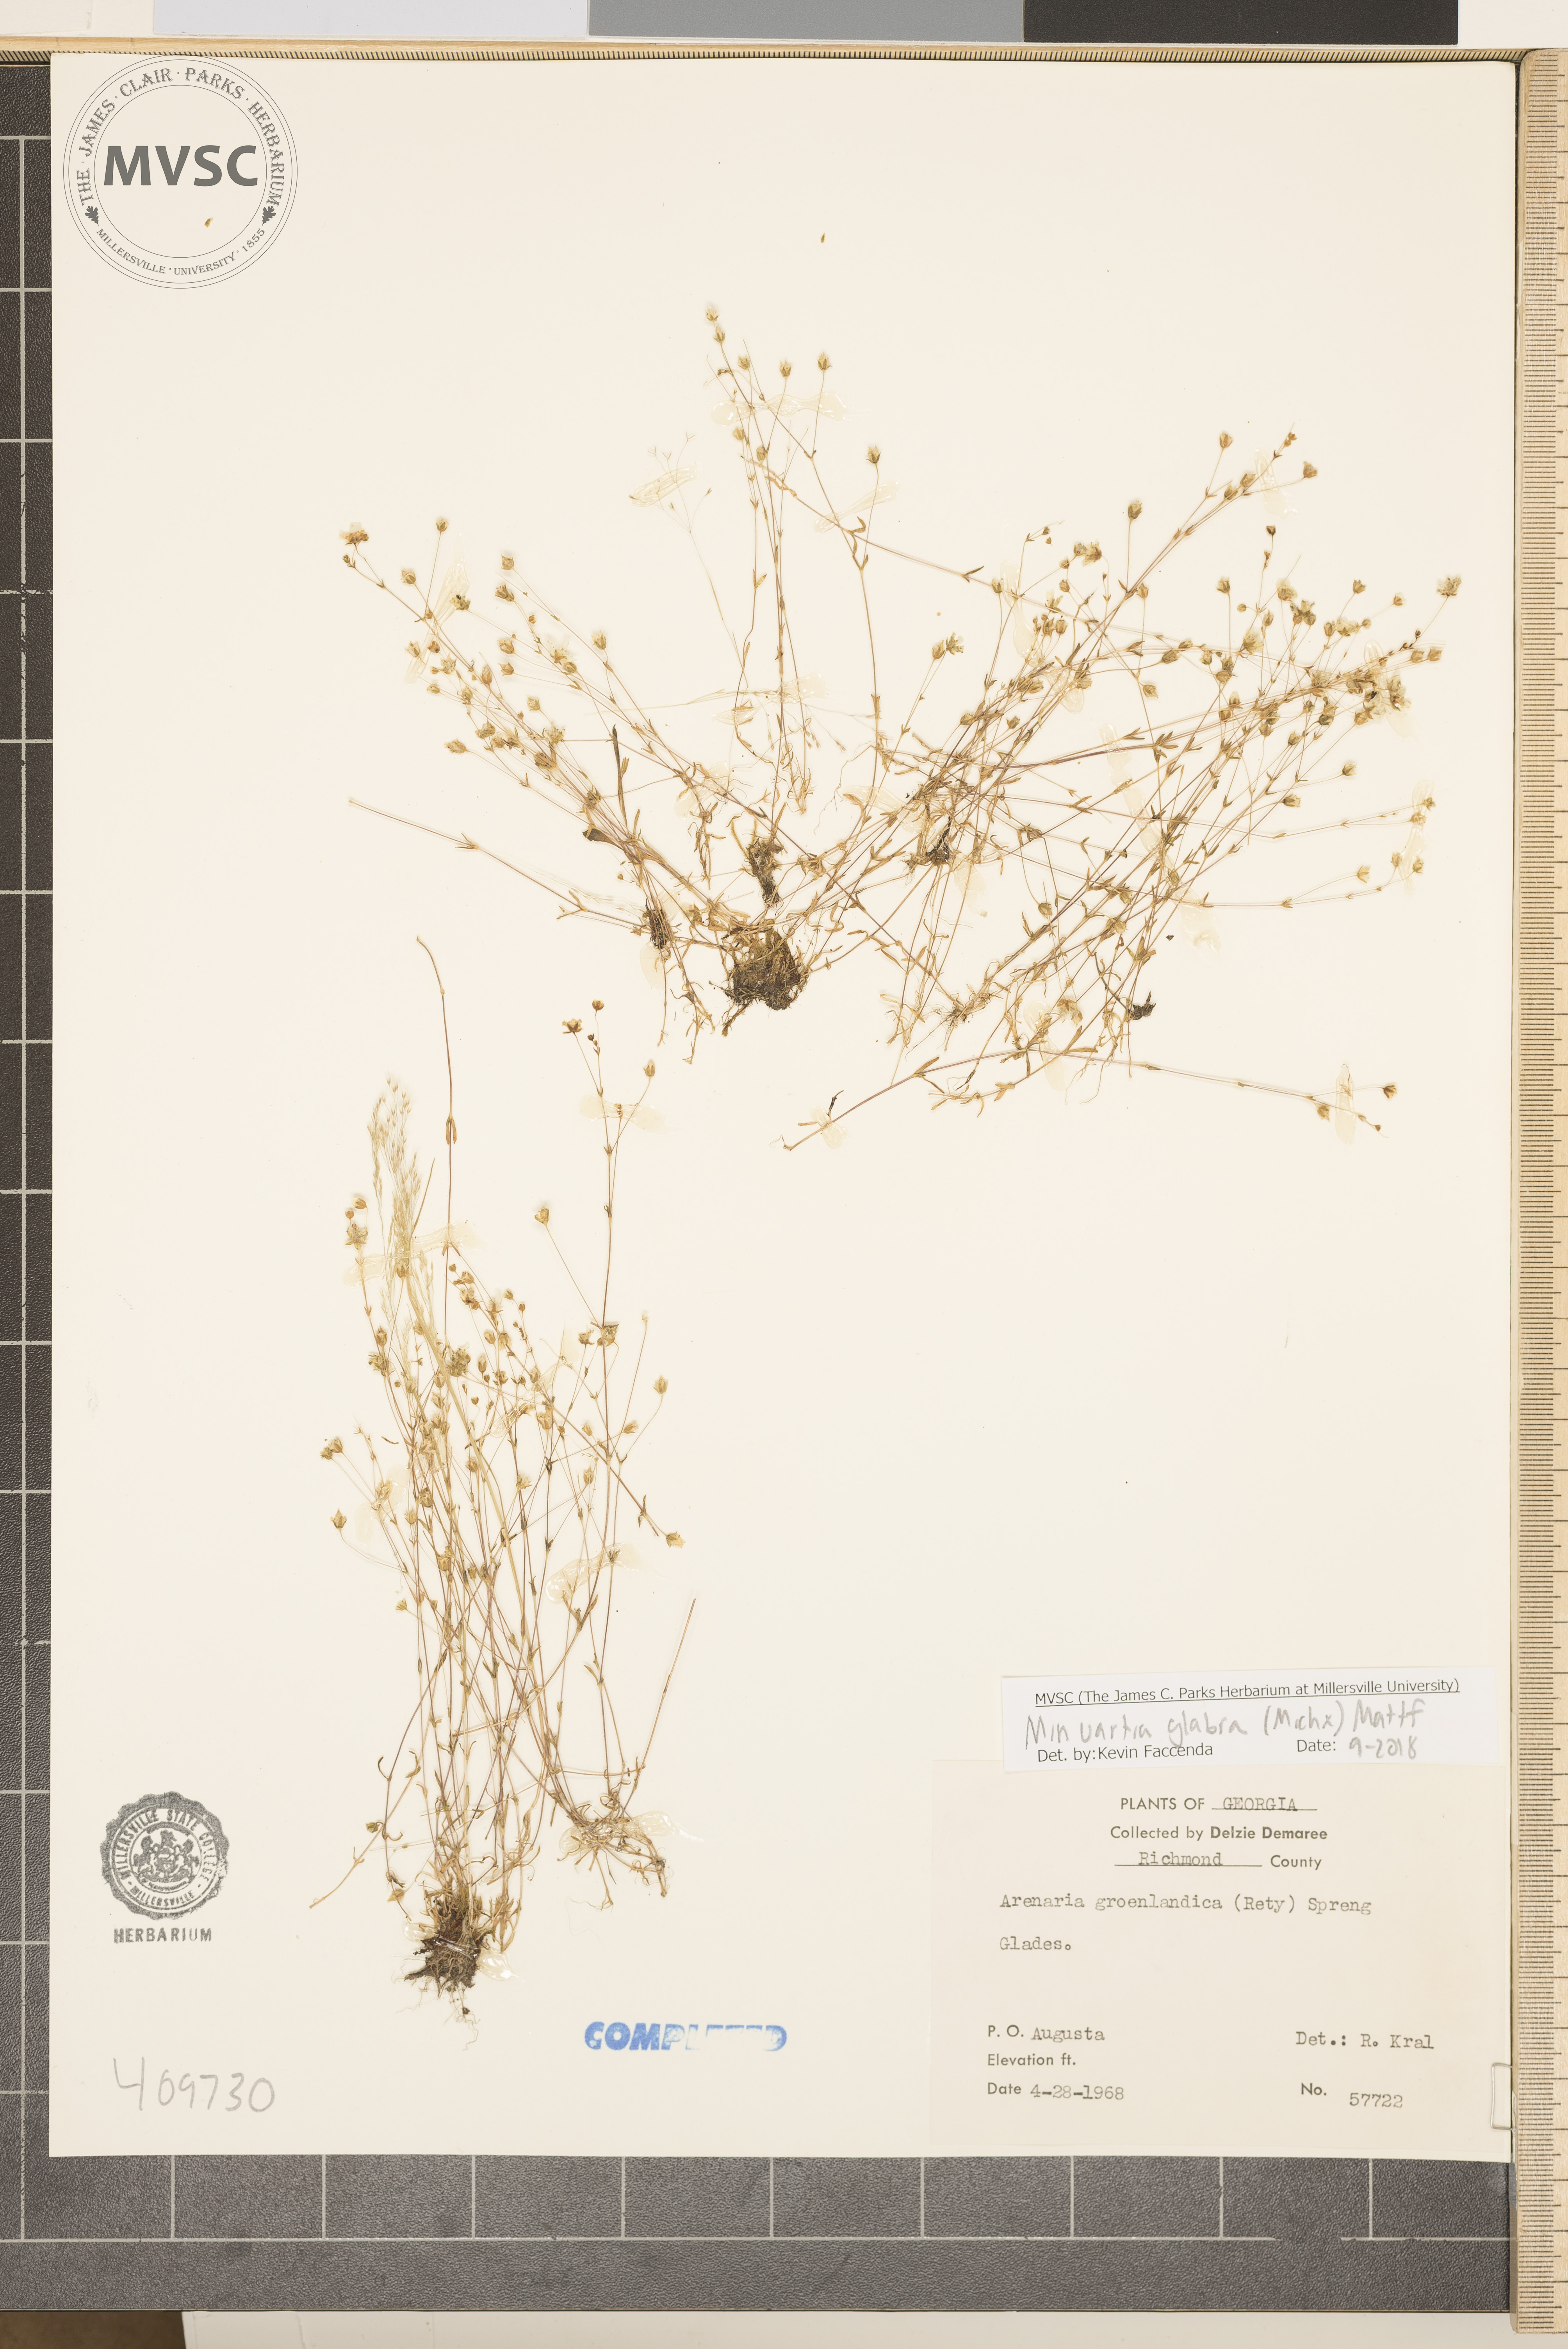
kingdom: Plantae
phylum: Tracheophyta
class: Magnoliopsida
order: Caryophyllales
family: Caryophyllaceae
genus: Geocarpon
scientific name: Geocarpon glabrum
